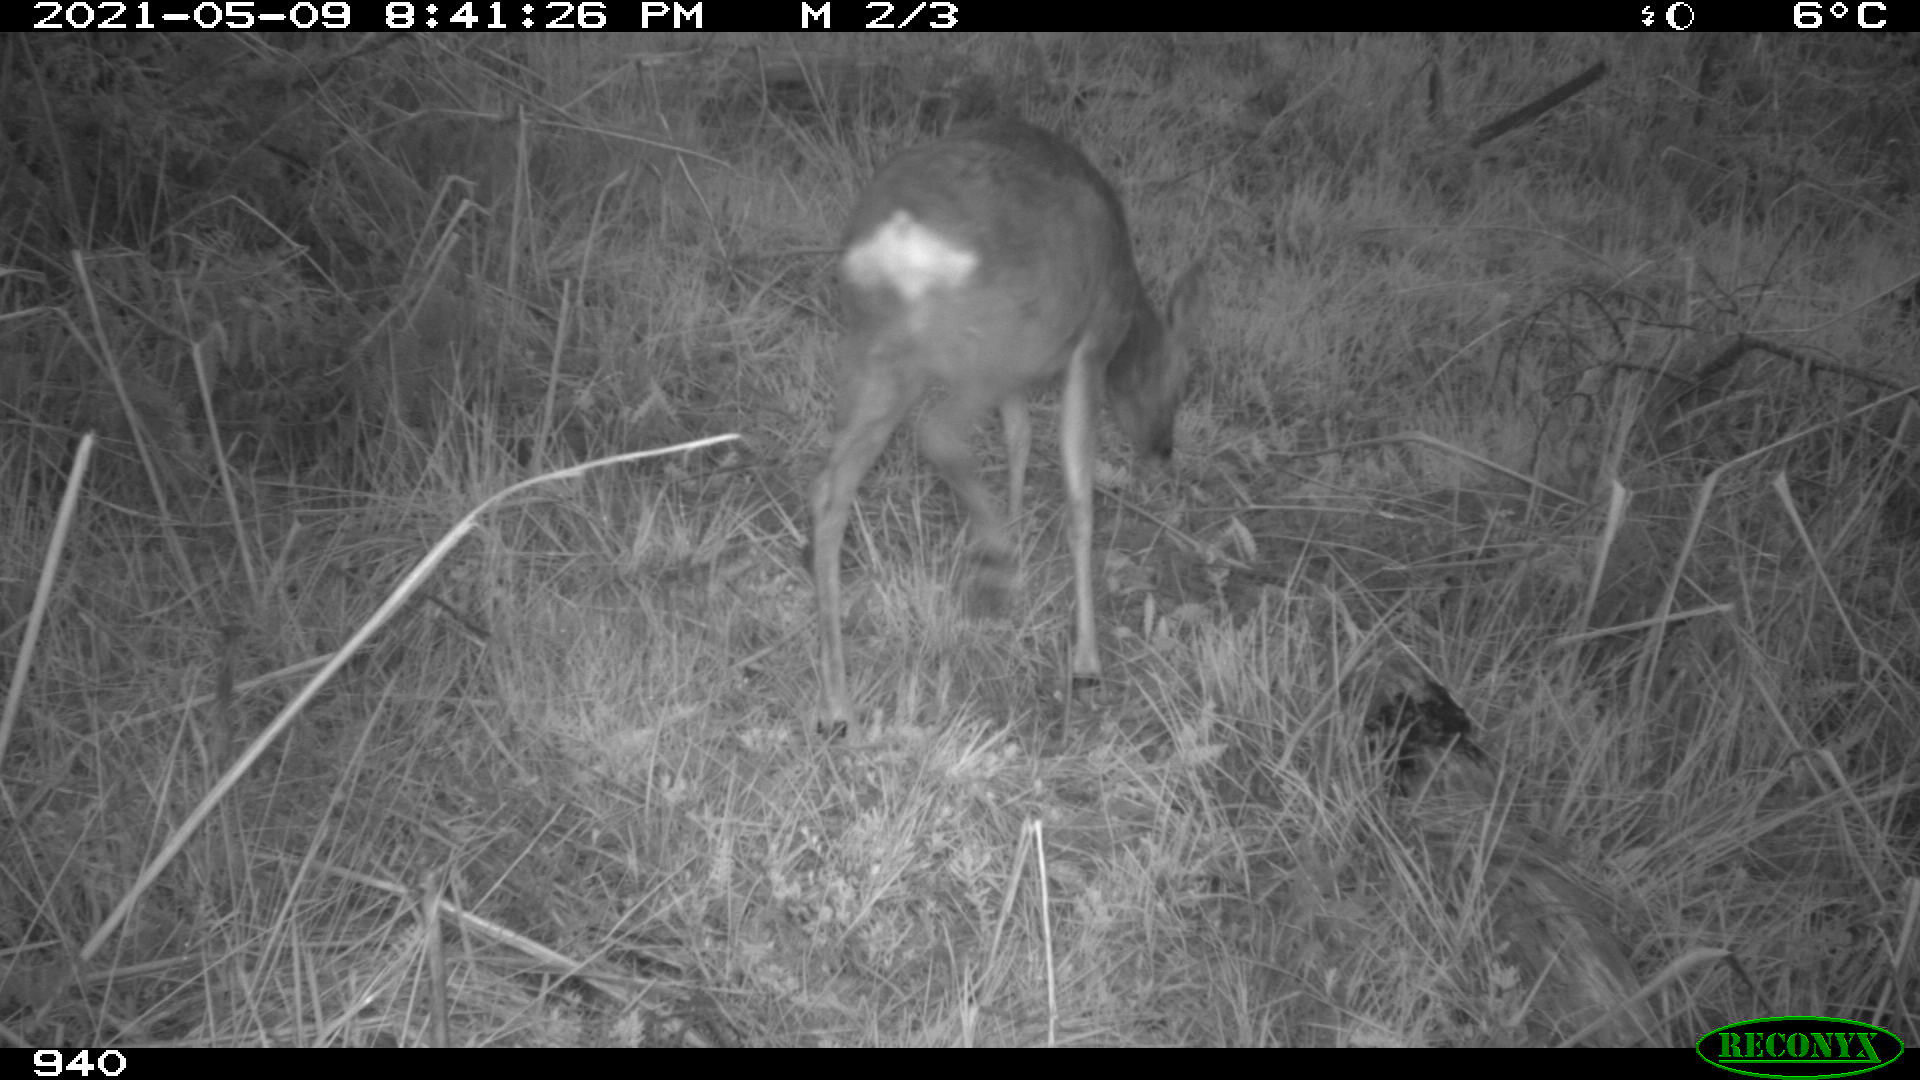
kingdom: Animalia
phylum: Chordata
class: Mammalia
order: Artiodactyla
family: Cervidae
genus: Capreolus
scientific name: Capreolus capreolus
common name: Western roe deer
